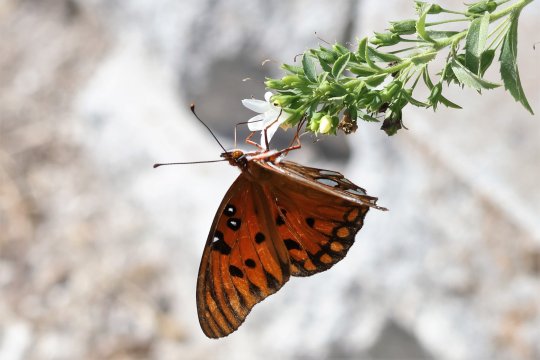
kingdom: Animalia
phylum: Arthropoda
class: Insecta
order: Lepidoptera
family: Nymphalidae
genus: Dione
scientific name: Dione vanillae
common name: Gulf Fritillary
